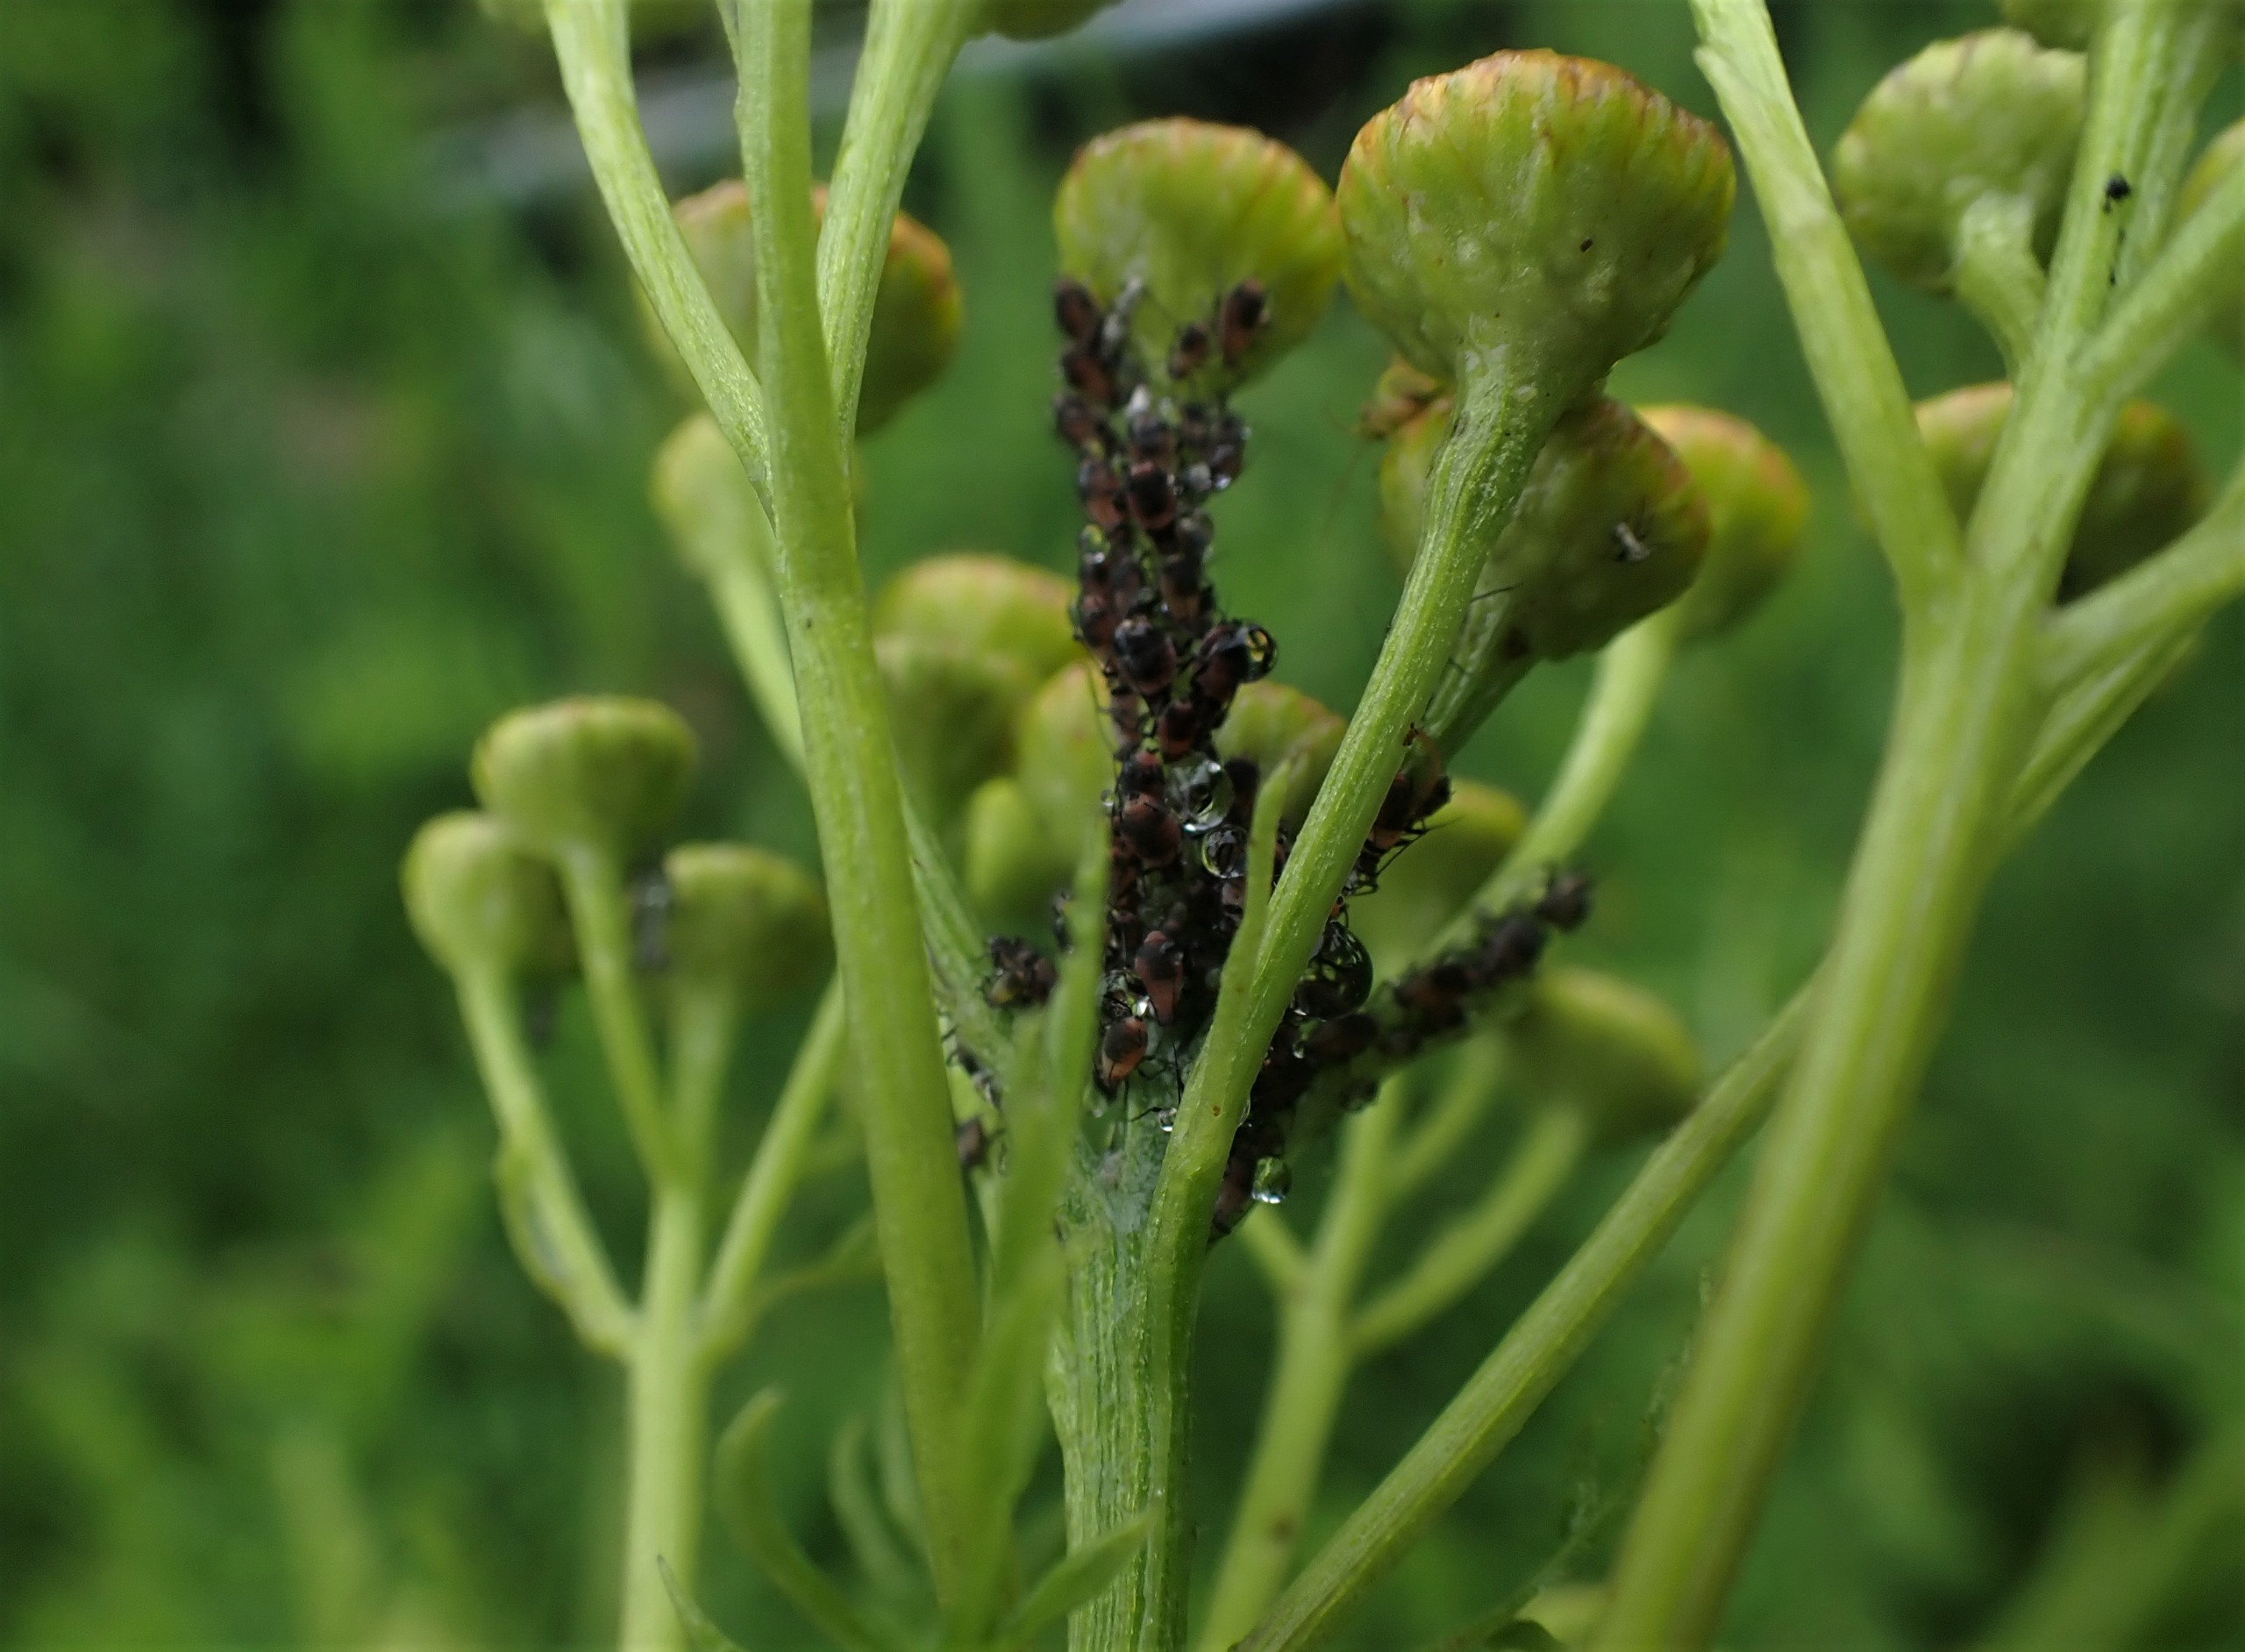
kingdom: Animalia
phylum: Arthropoda
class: Insecta
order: Hemiptera
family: Aphididae
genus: Metopeurum
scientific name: Metopeurum fuscoviride
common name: Mørk rejnfanbladlus
